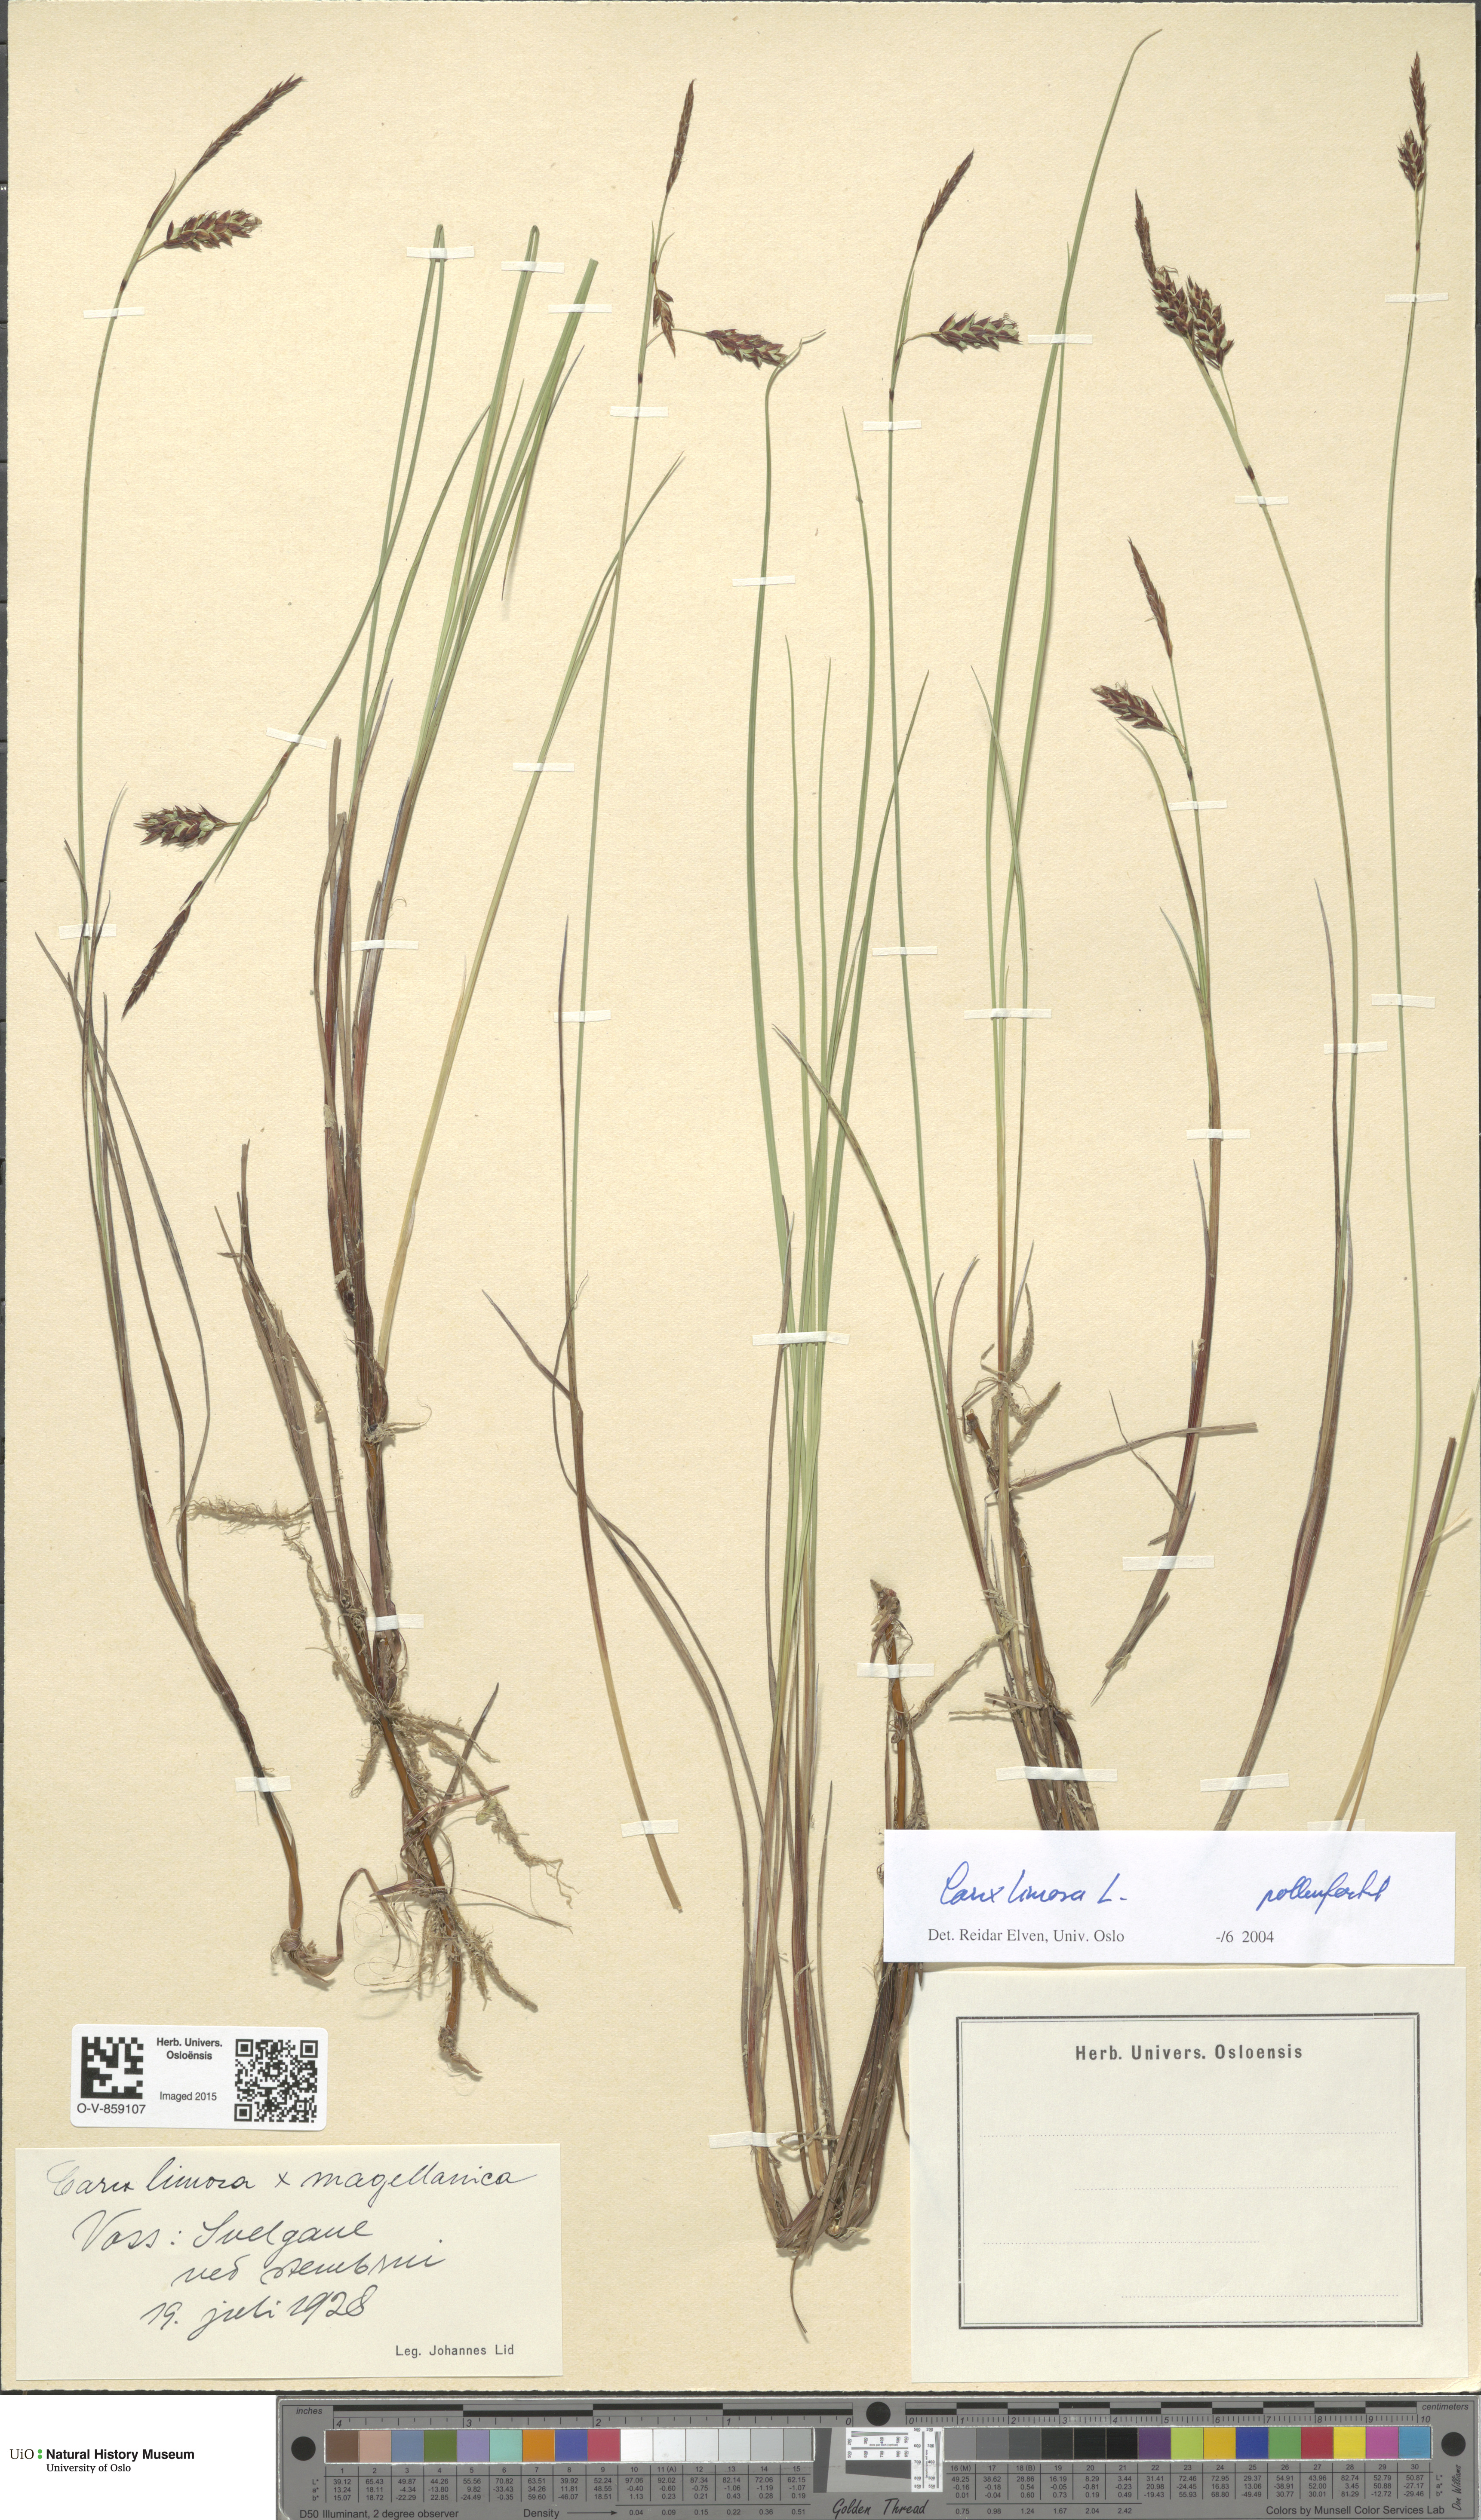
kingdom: Plantae
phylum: Tracheophyta
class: Liliopsida
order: Poales
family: Cyperaceae
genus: Carex
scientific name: Carex limosa
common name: Bog sedge
